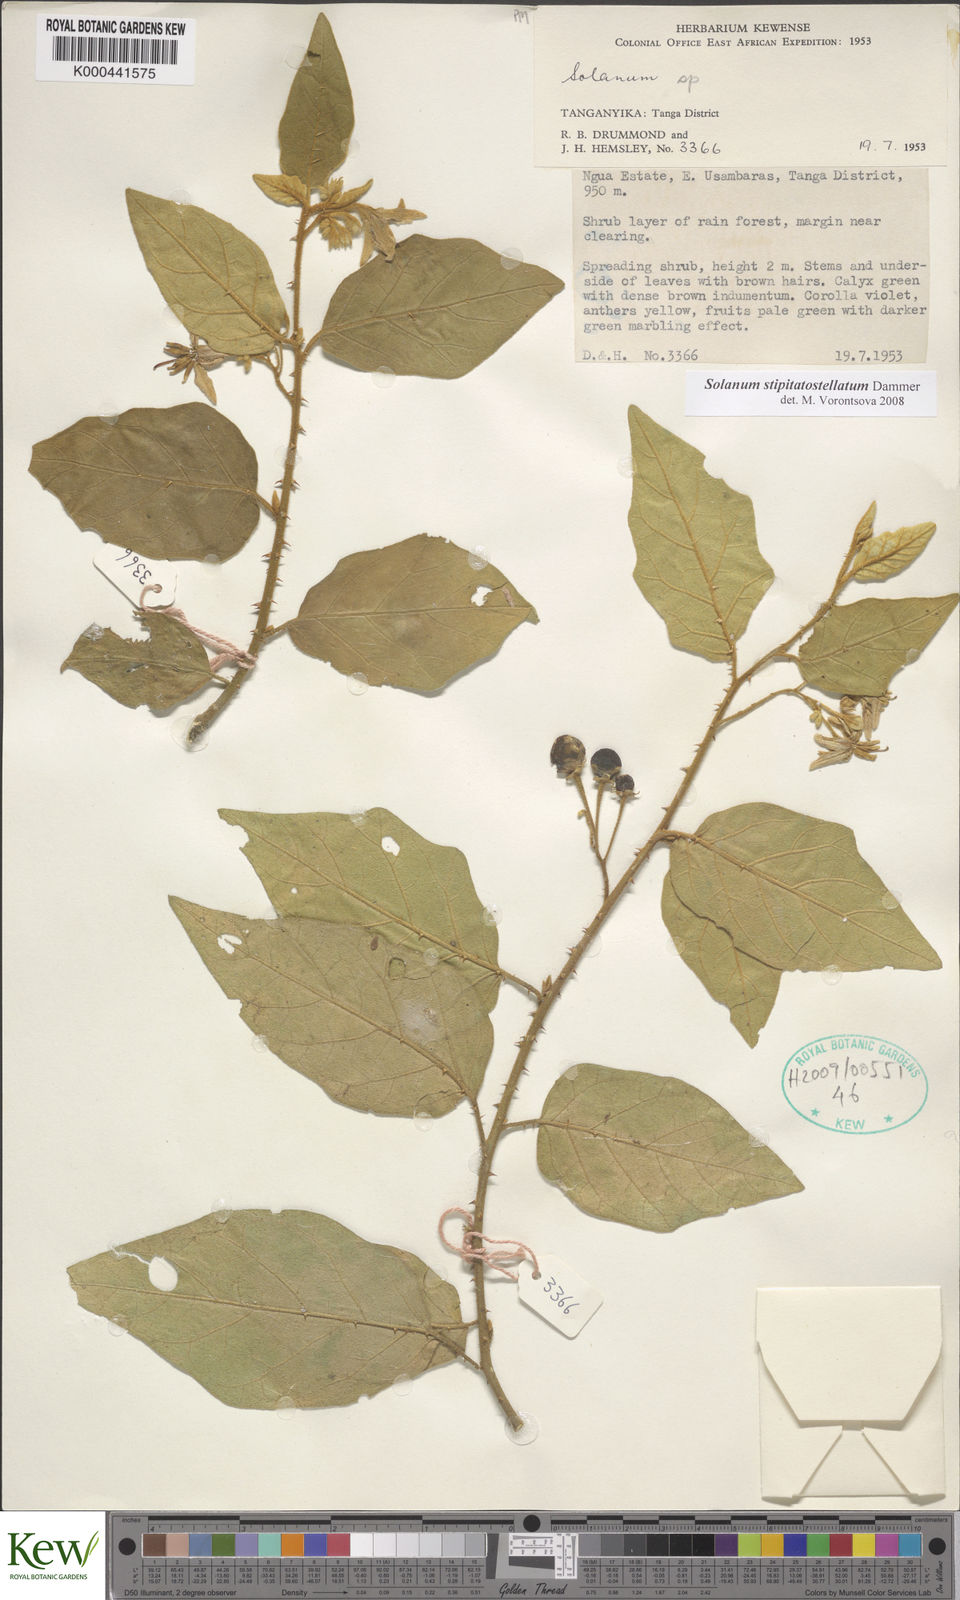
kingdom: Plantae
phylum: Tracheophyta
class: Magnoliopsida
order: Solanales
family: Solanaceae
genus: Solanum
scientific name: Solanum stipitatostellatum
